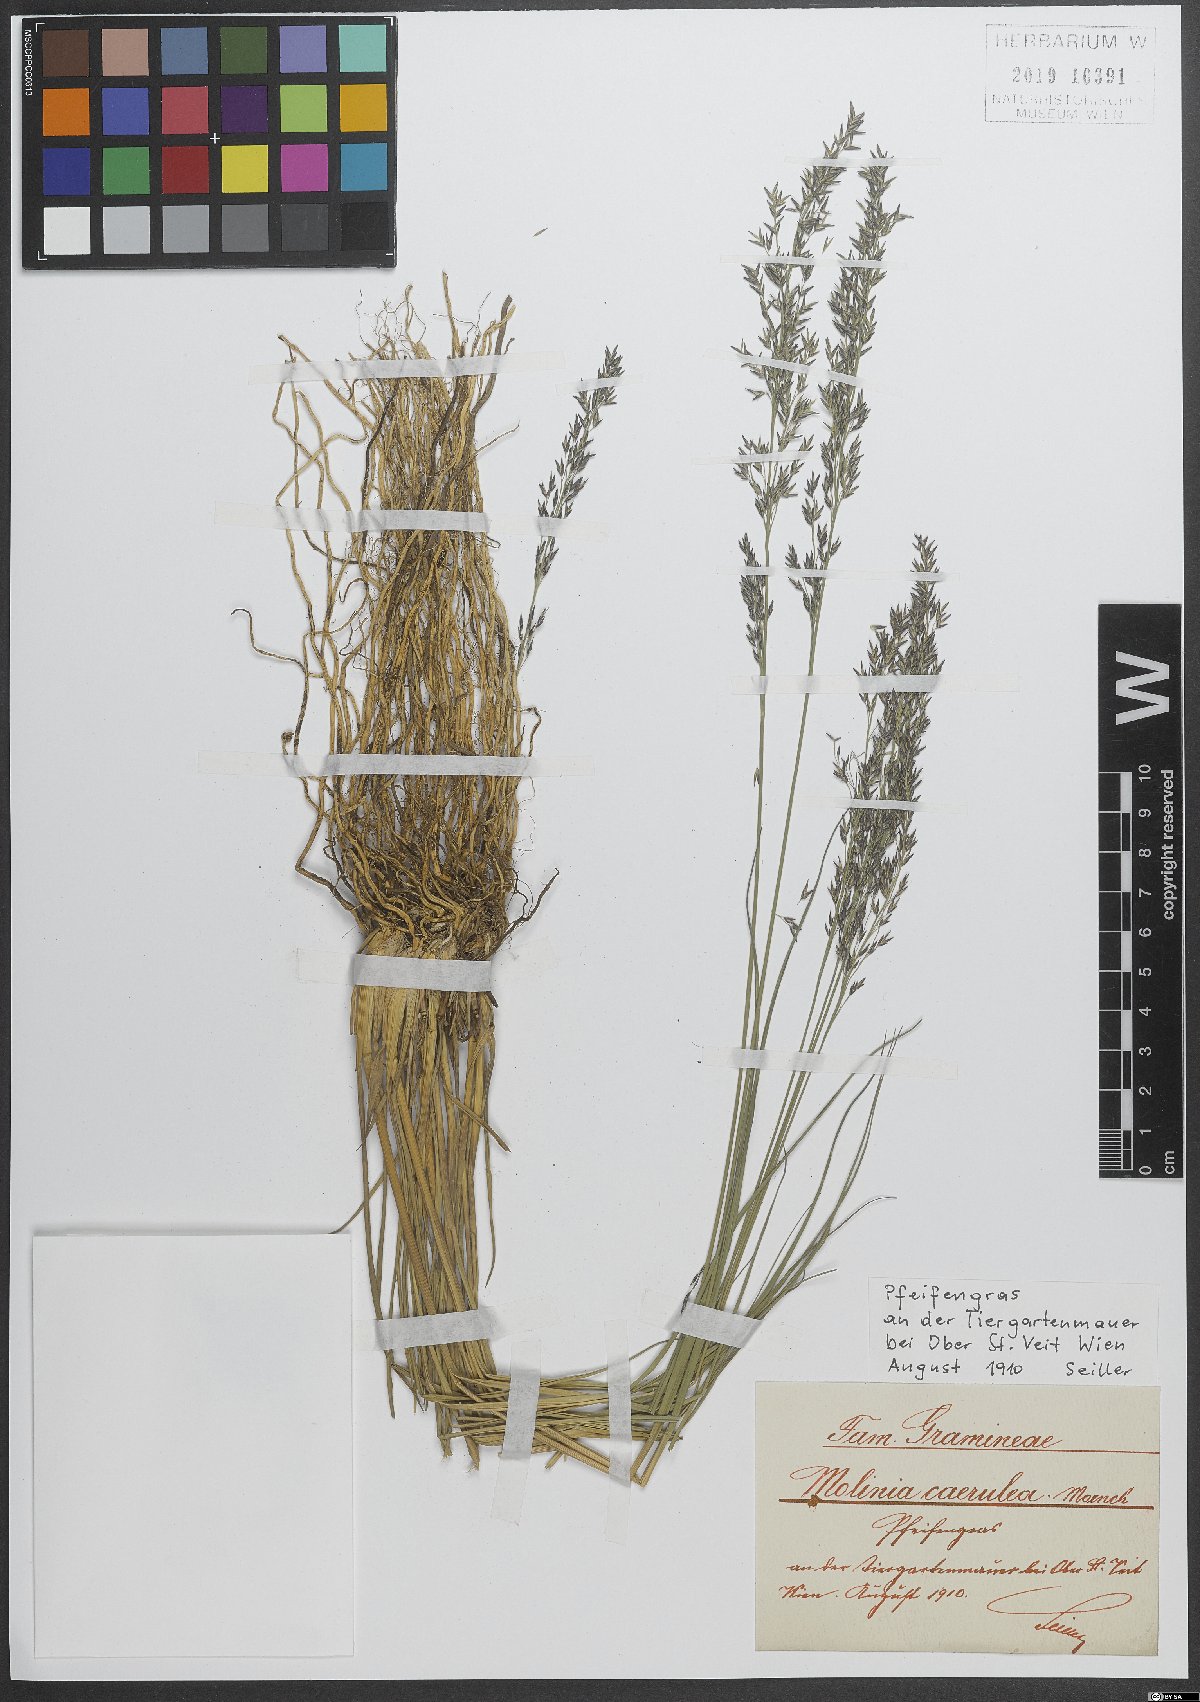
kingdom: Plantae
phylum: Tracheophyta
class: Liliopsida
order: Poales
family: Poaceae
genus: Molinia
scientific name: Molinia caerulea
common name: Purple moor-grass
